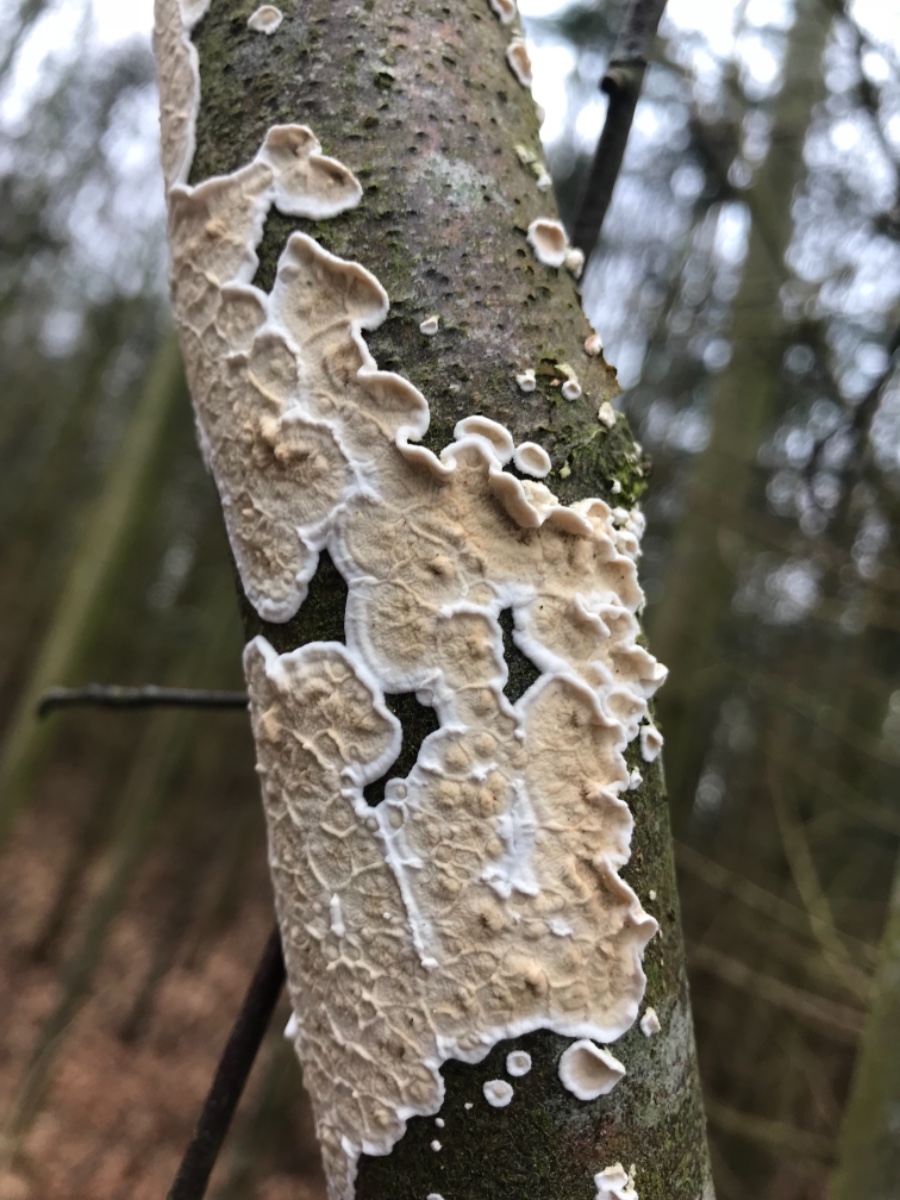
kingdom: Fungi
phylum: Basidiomycota
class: Agaricomycetes
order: Polyporales
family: Irpicaceae
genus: Byssomerulius
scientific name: Byssomerulius corium
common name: læder-åresvamp
